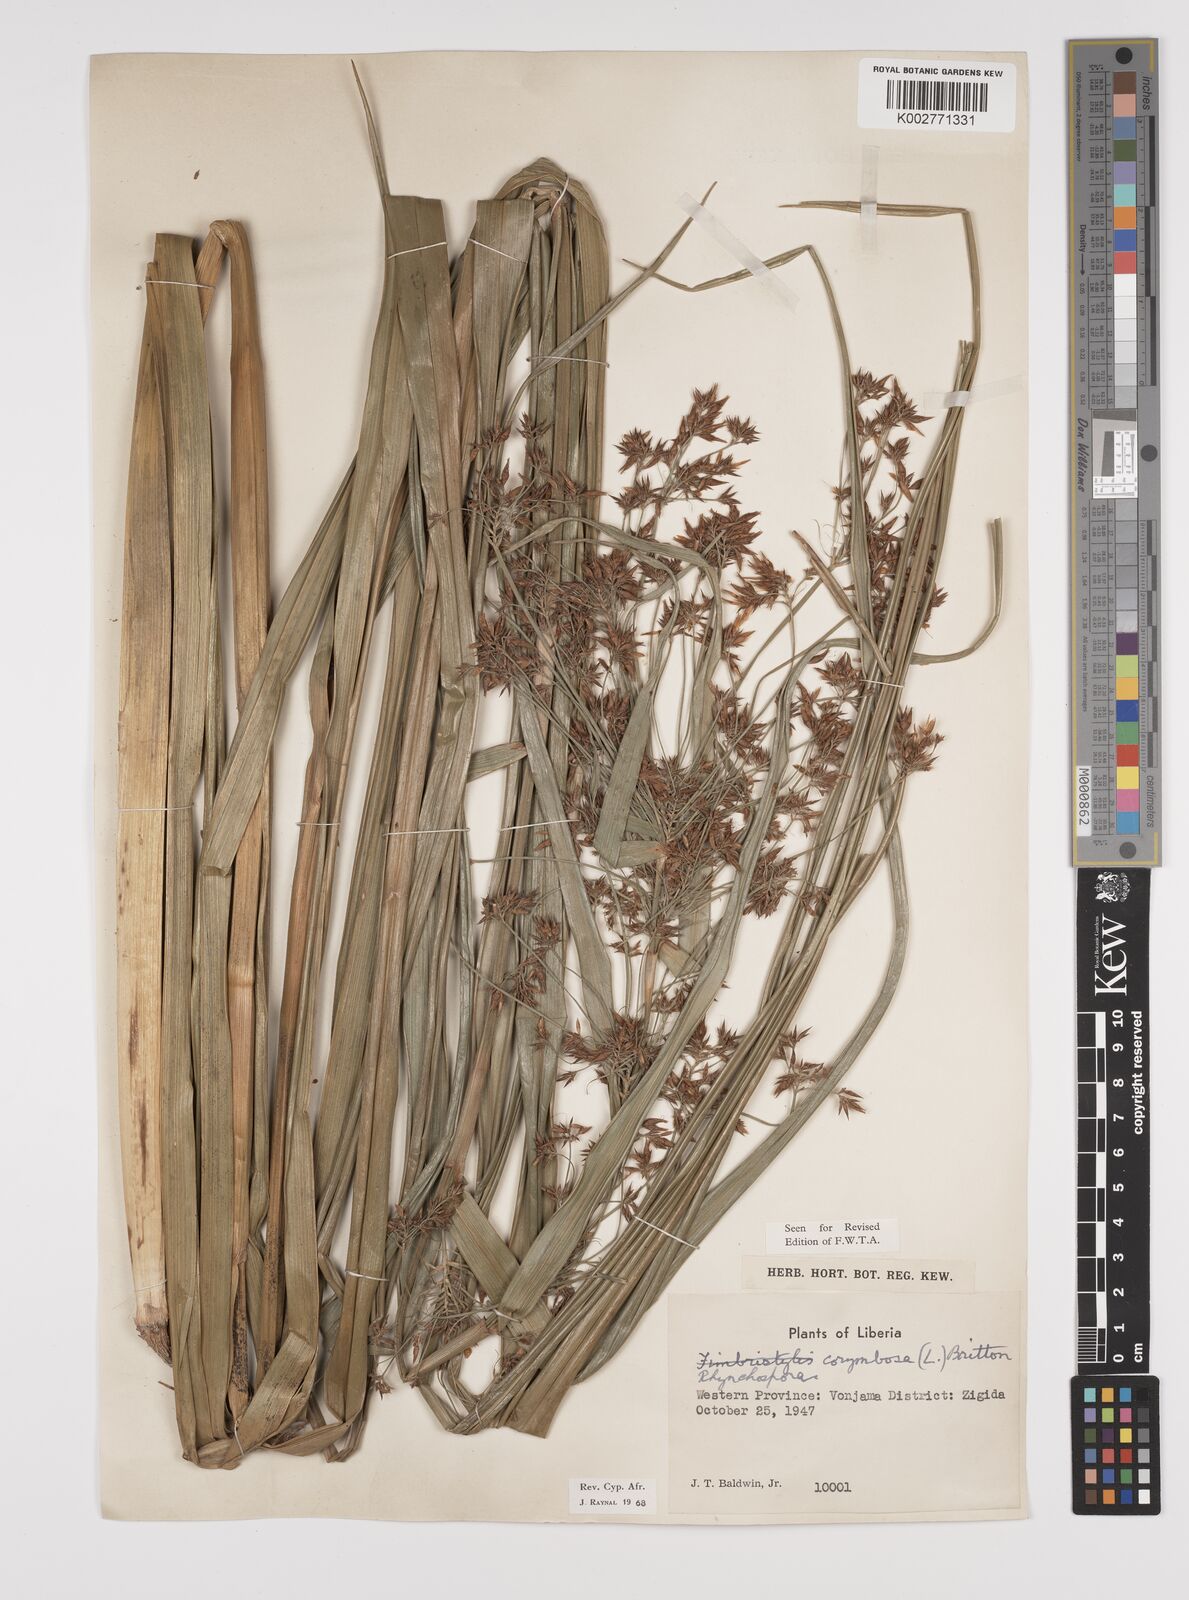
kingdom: Plantae
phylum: Tracheophyta
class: Liliopsida
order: Poales
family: Cyperaceae
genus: Rhynchospora
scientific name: Rhynchospora corymbosa
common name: Golden beak sedge
